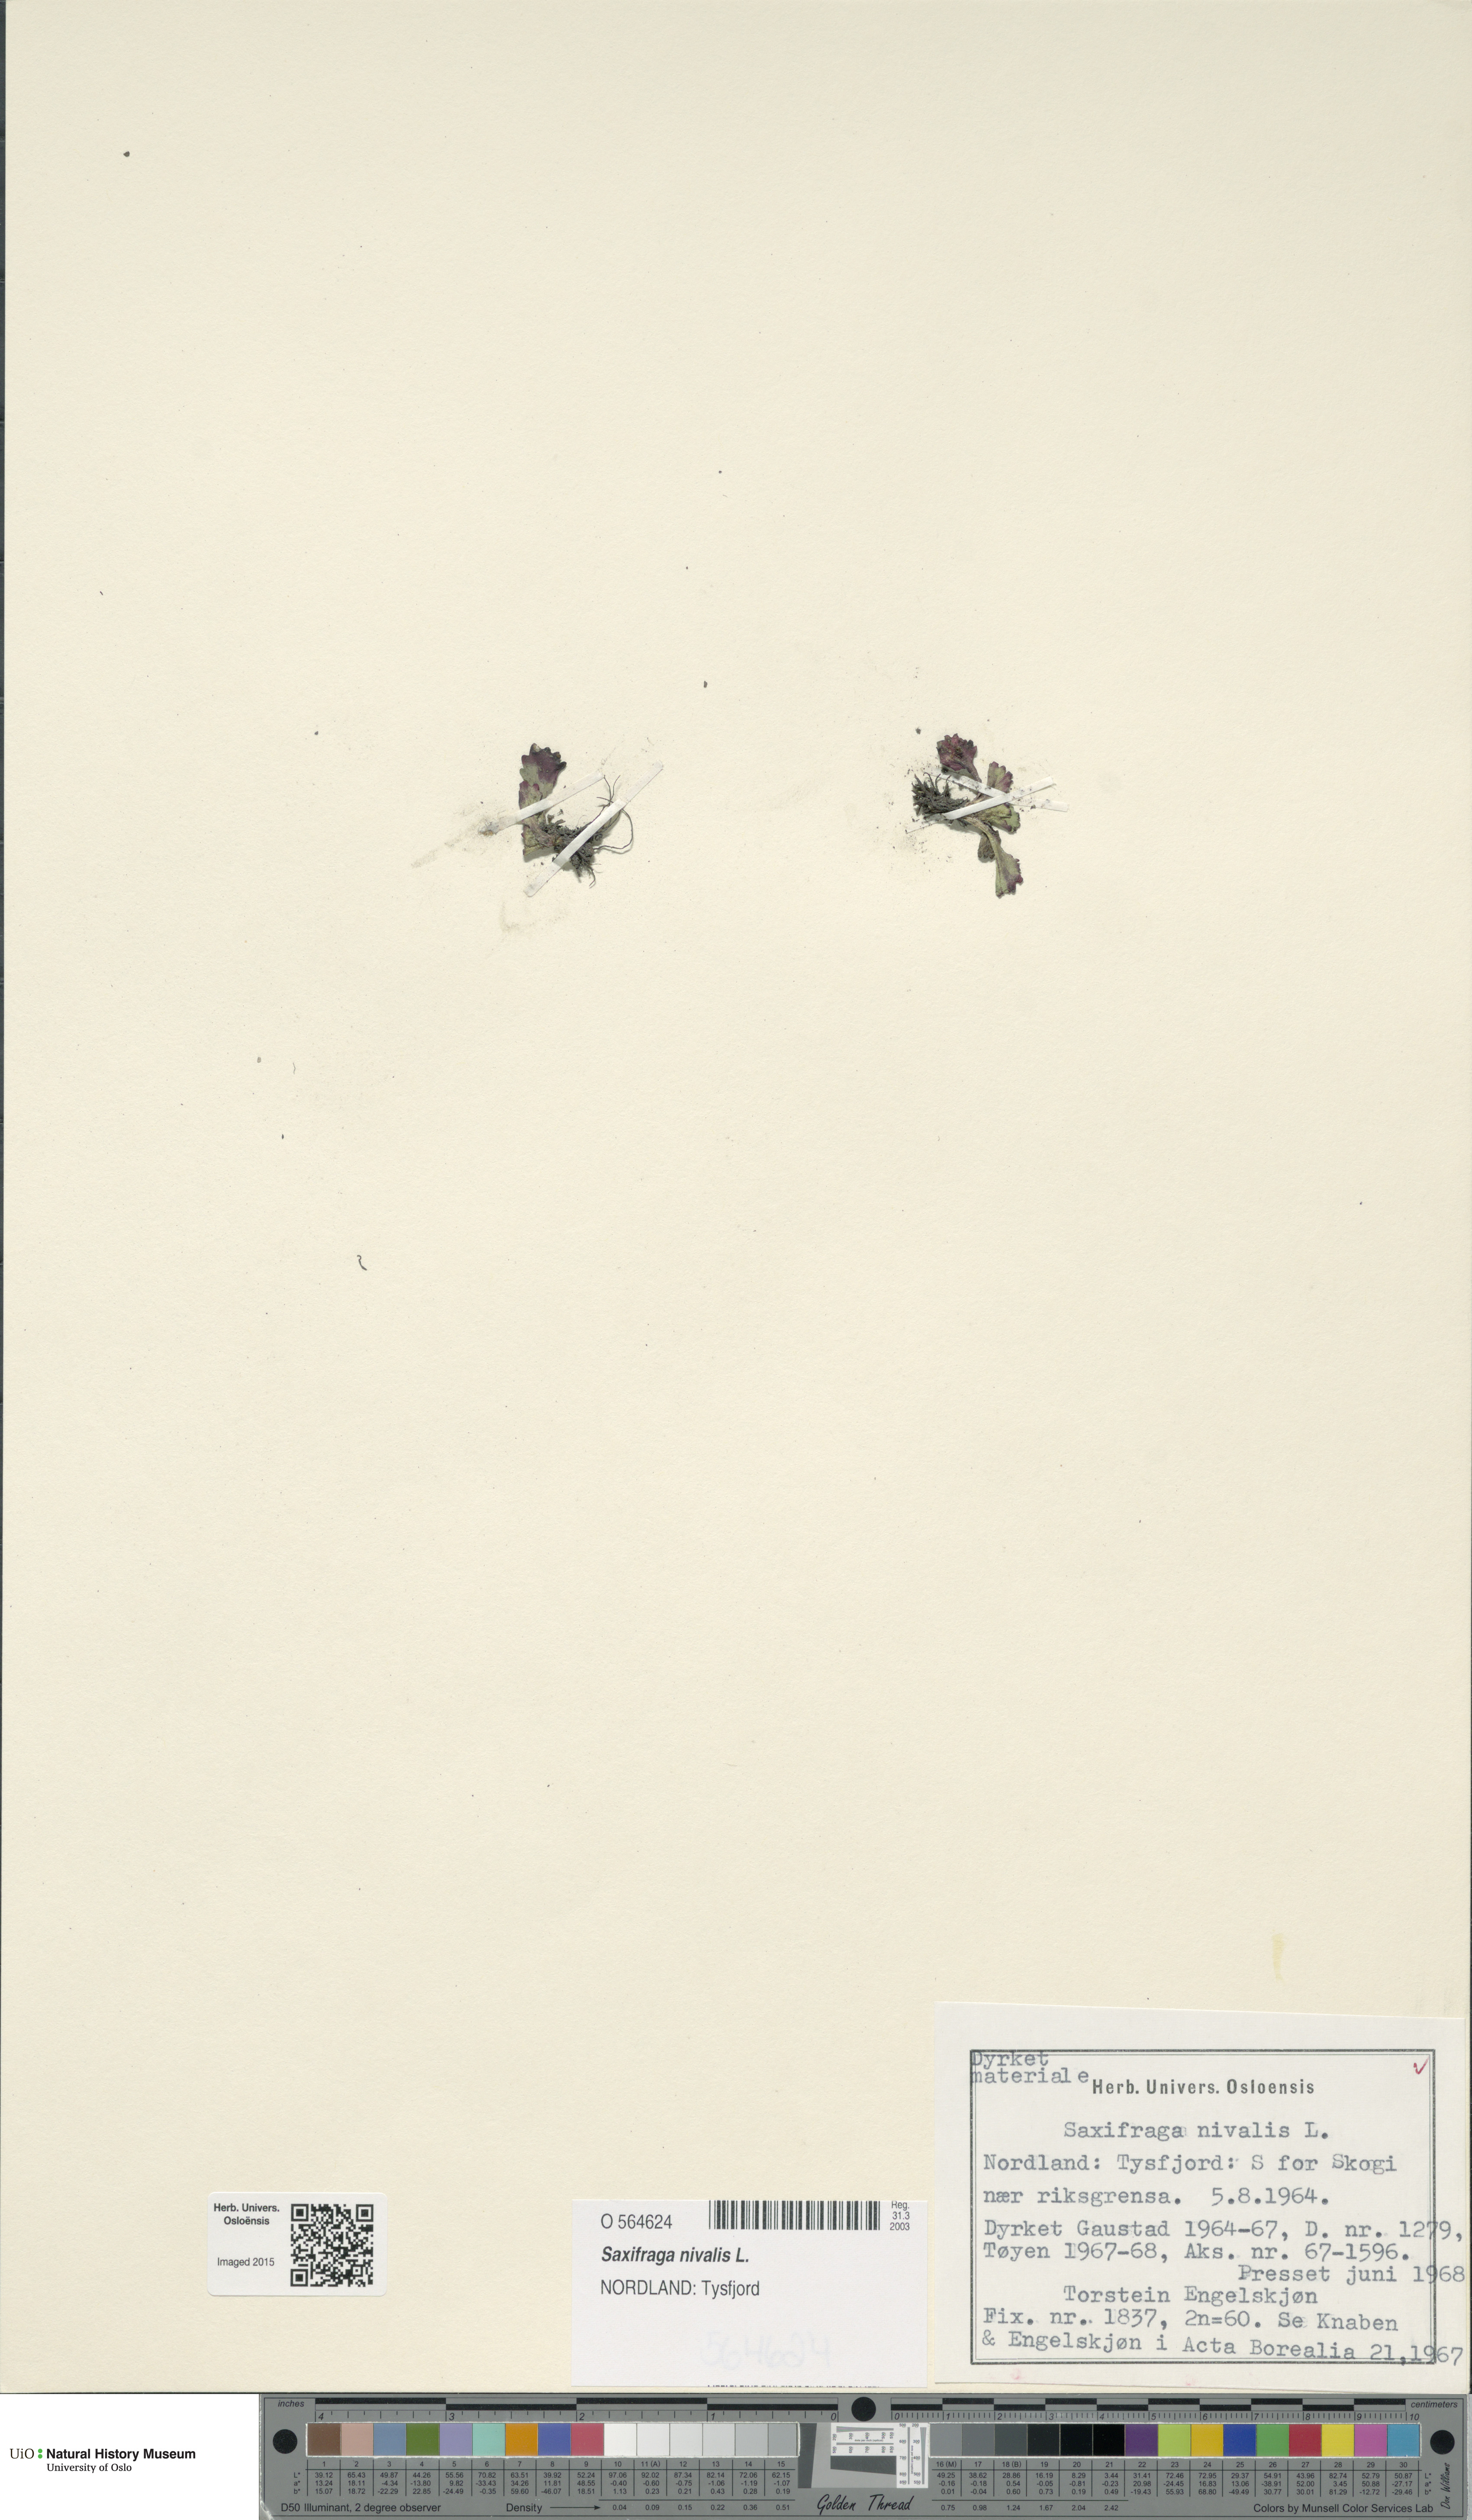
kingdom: Plantae
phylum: Tracheophyta
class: Magnoliopsida
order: Saxifragales
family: Saxifragaceae
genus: Micranthes
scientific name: Micranthes nivalis
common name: Alpine saxifrage
